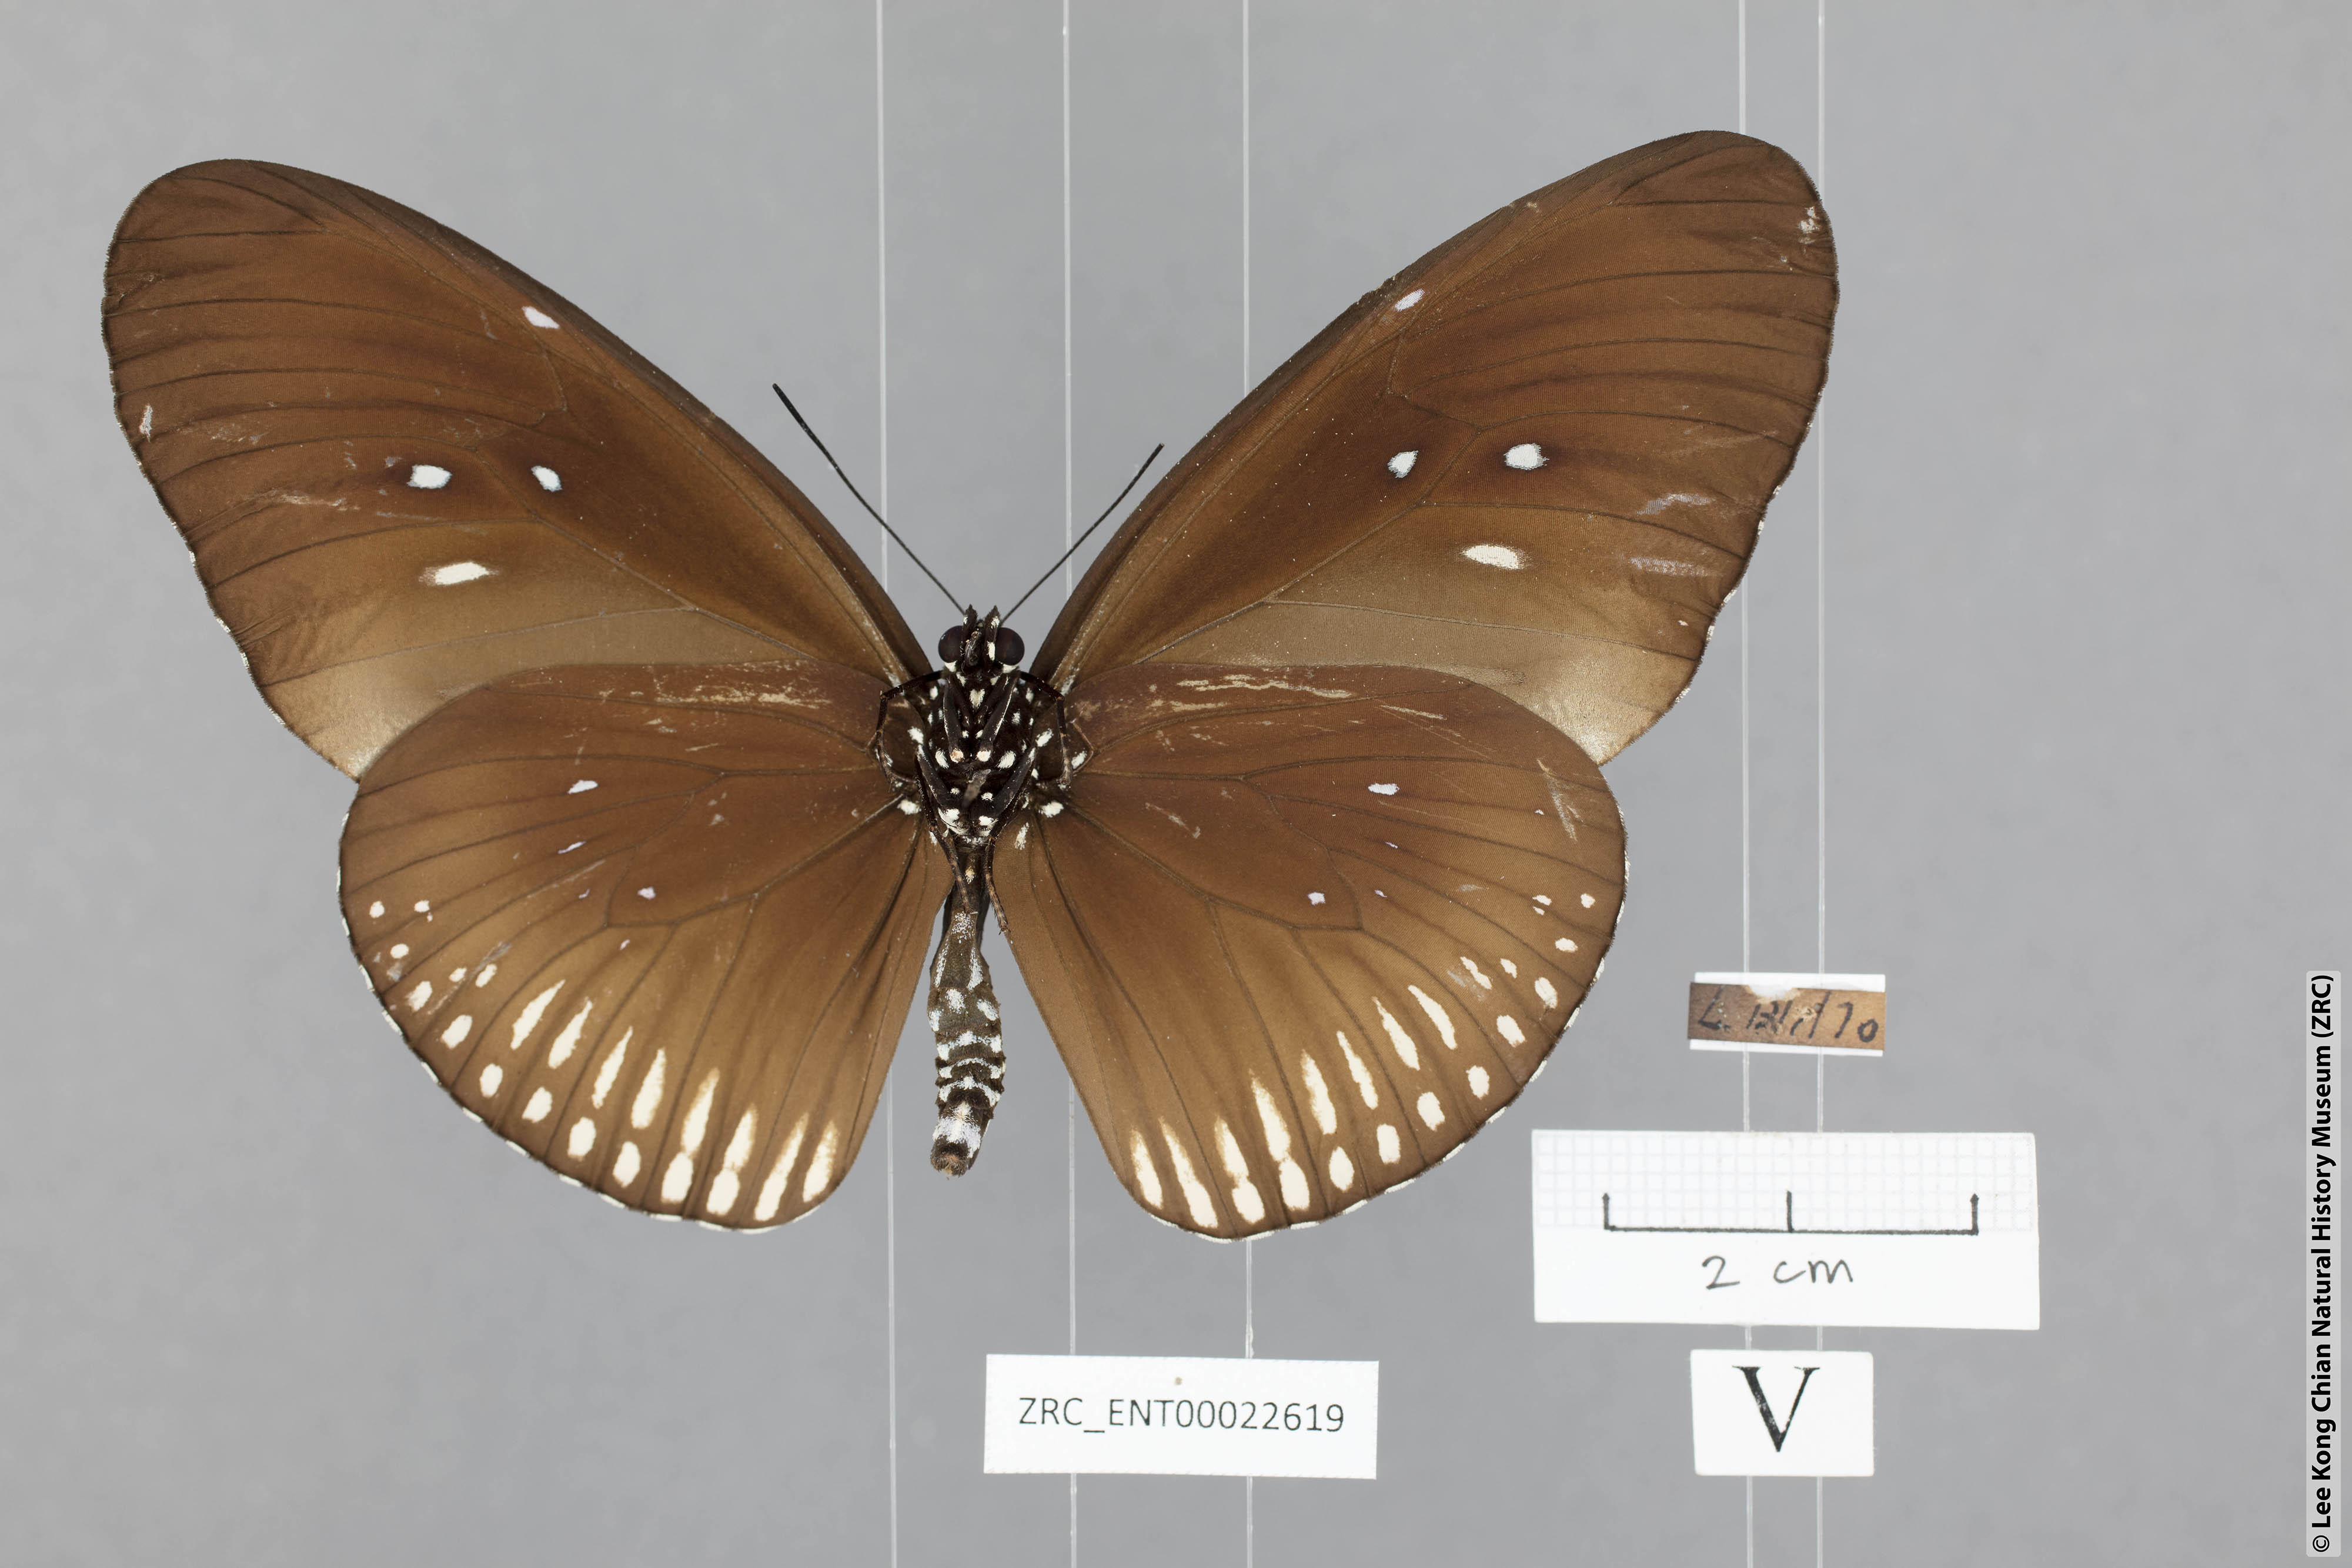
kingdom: Animalia
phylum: Arthropoda
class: Insecta
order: Lepidoptera
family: Nymphalidae
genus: Euploea
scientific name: Euploea doubledayi
